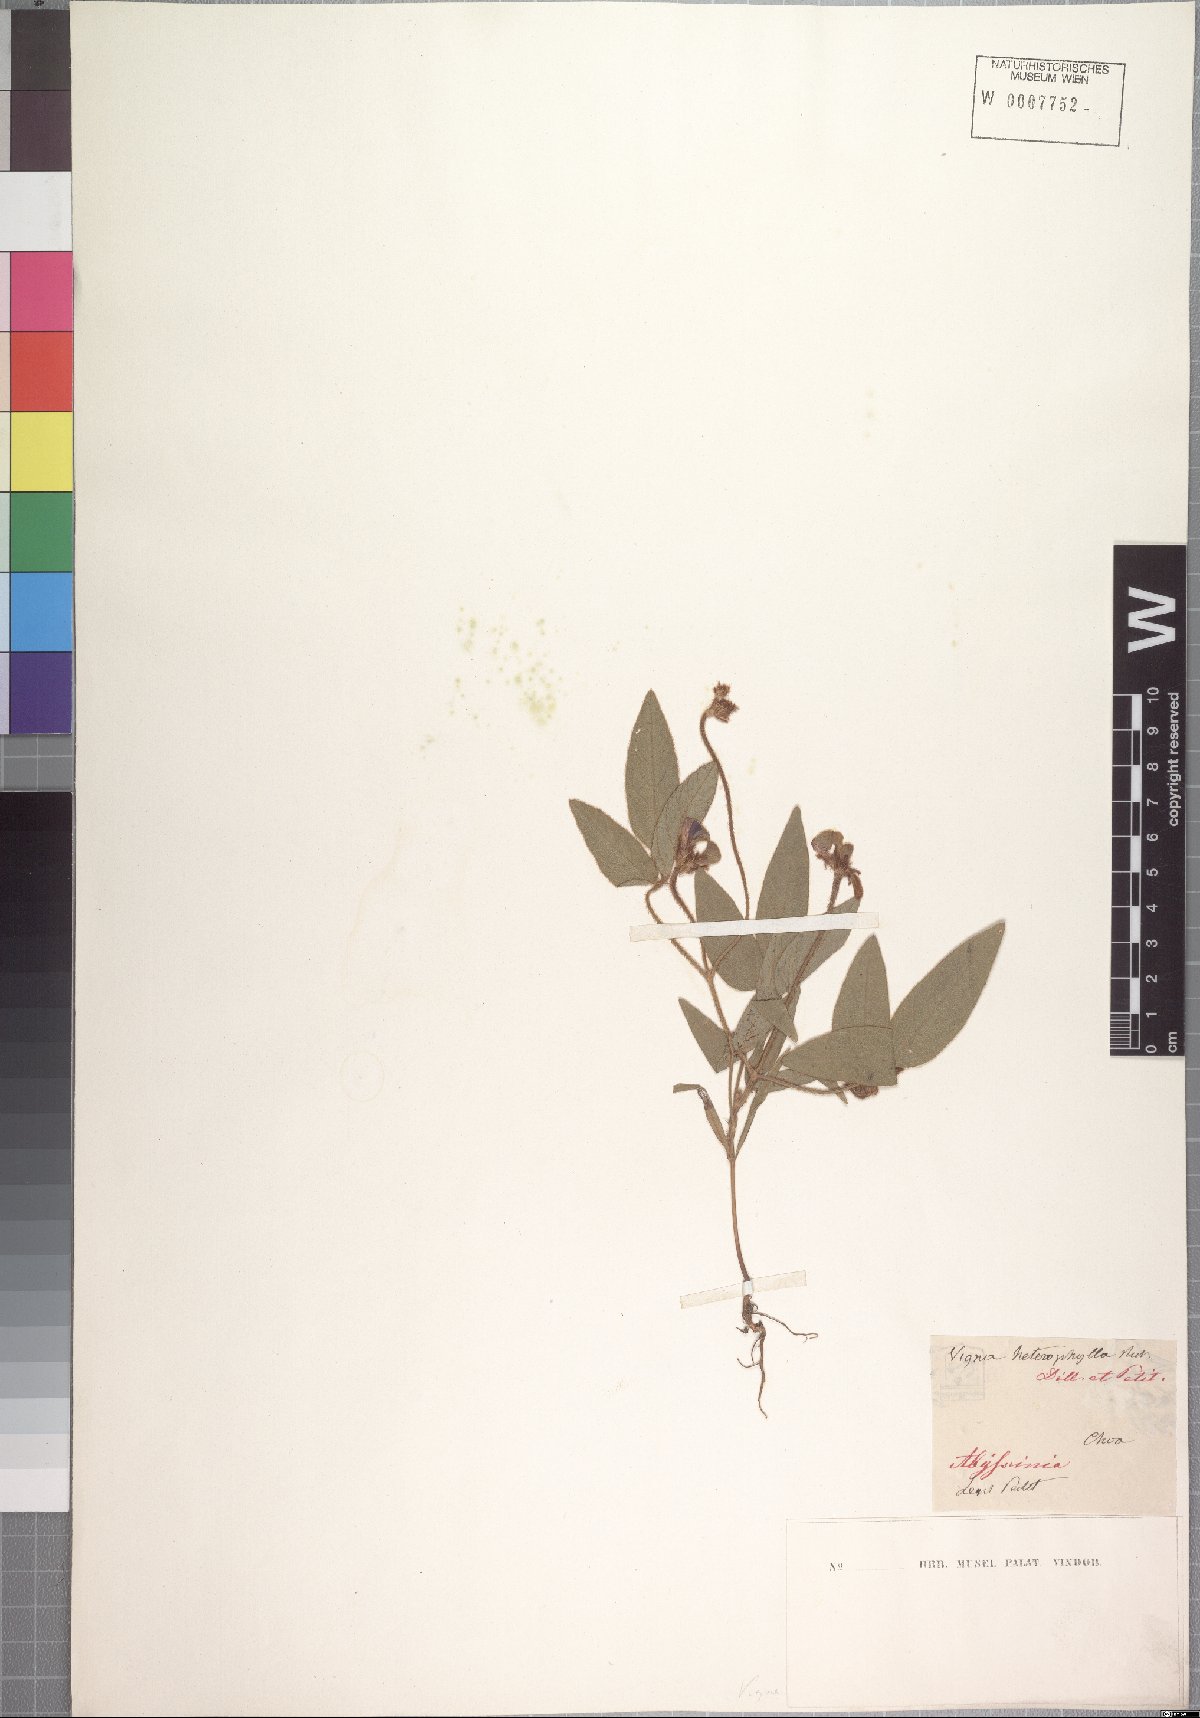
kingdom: Plantae
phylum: Tracheophyta
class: Magnoliopsida
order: Fabales
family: Fabaceae
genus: Vigna
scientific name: Vigna heterophylla
